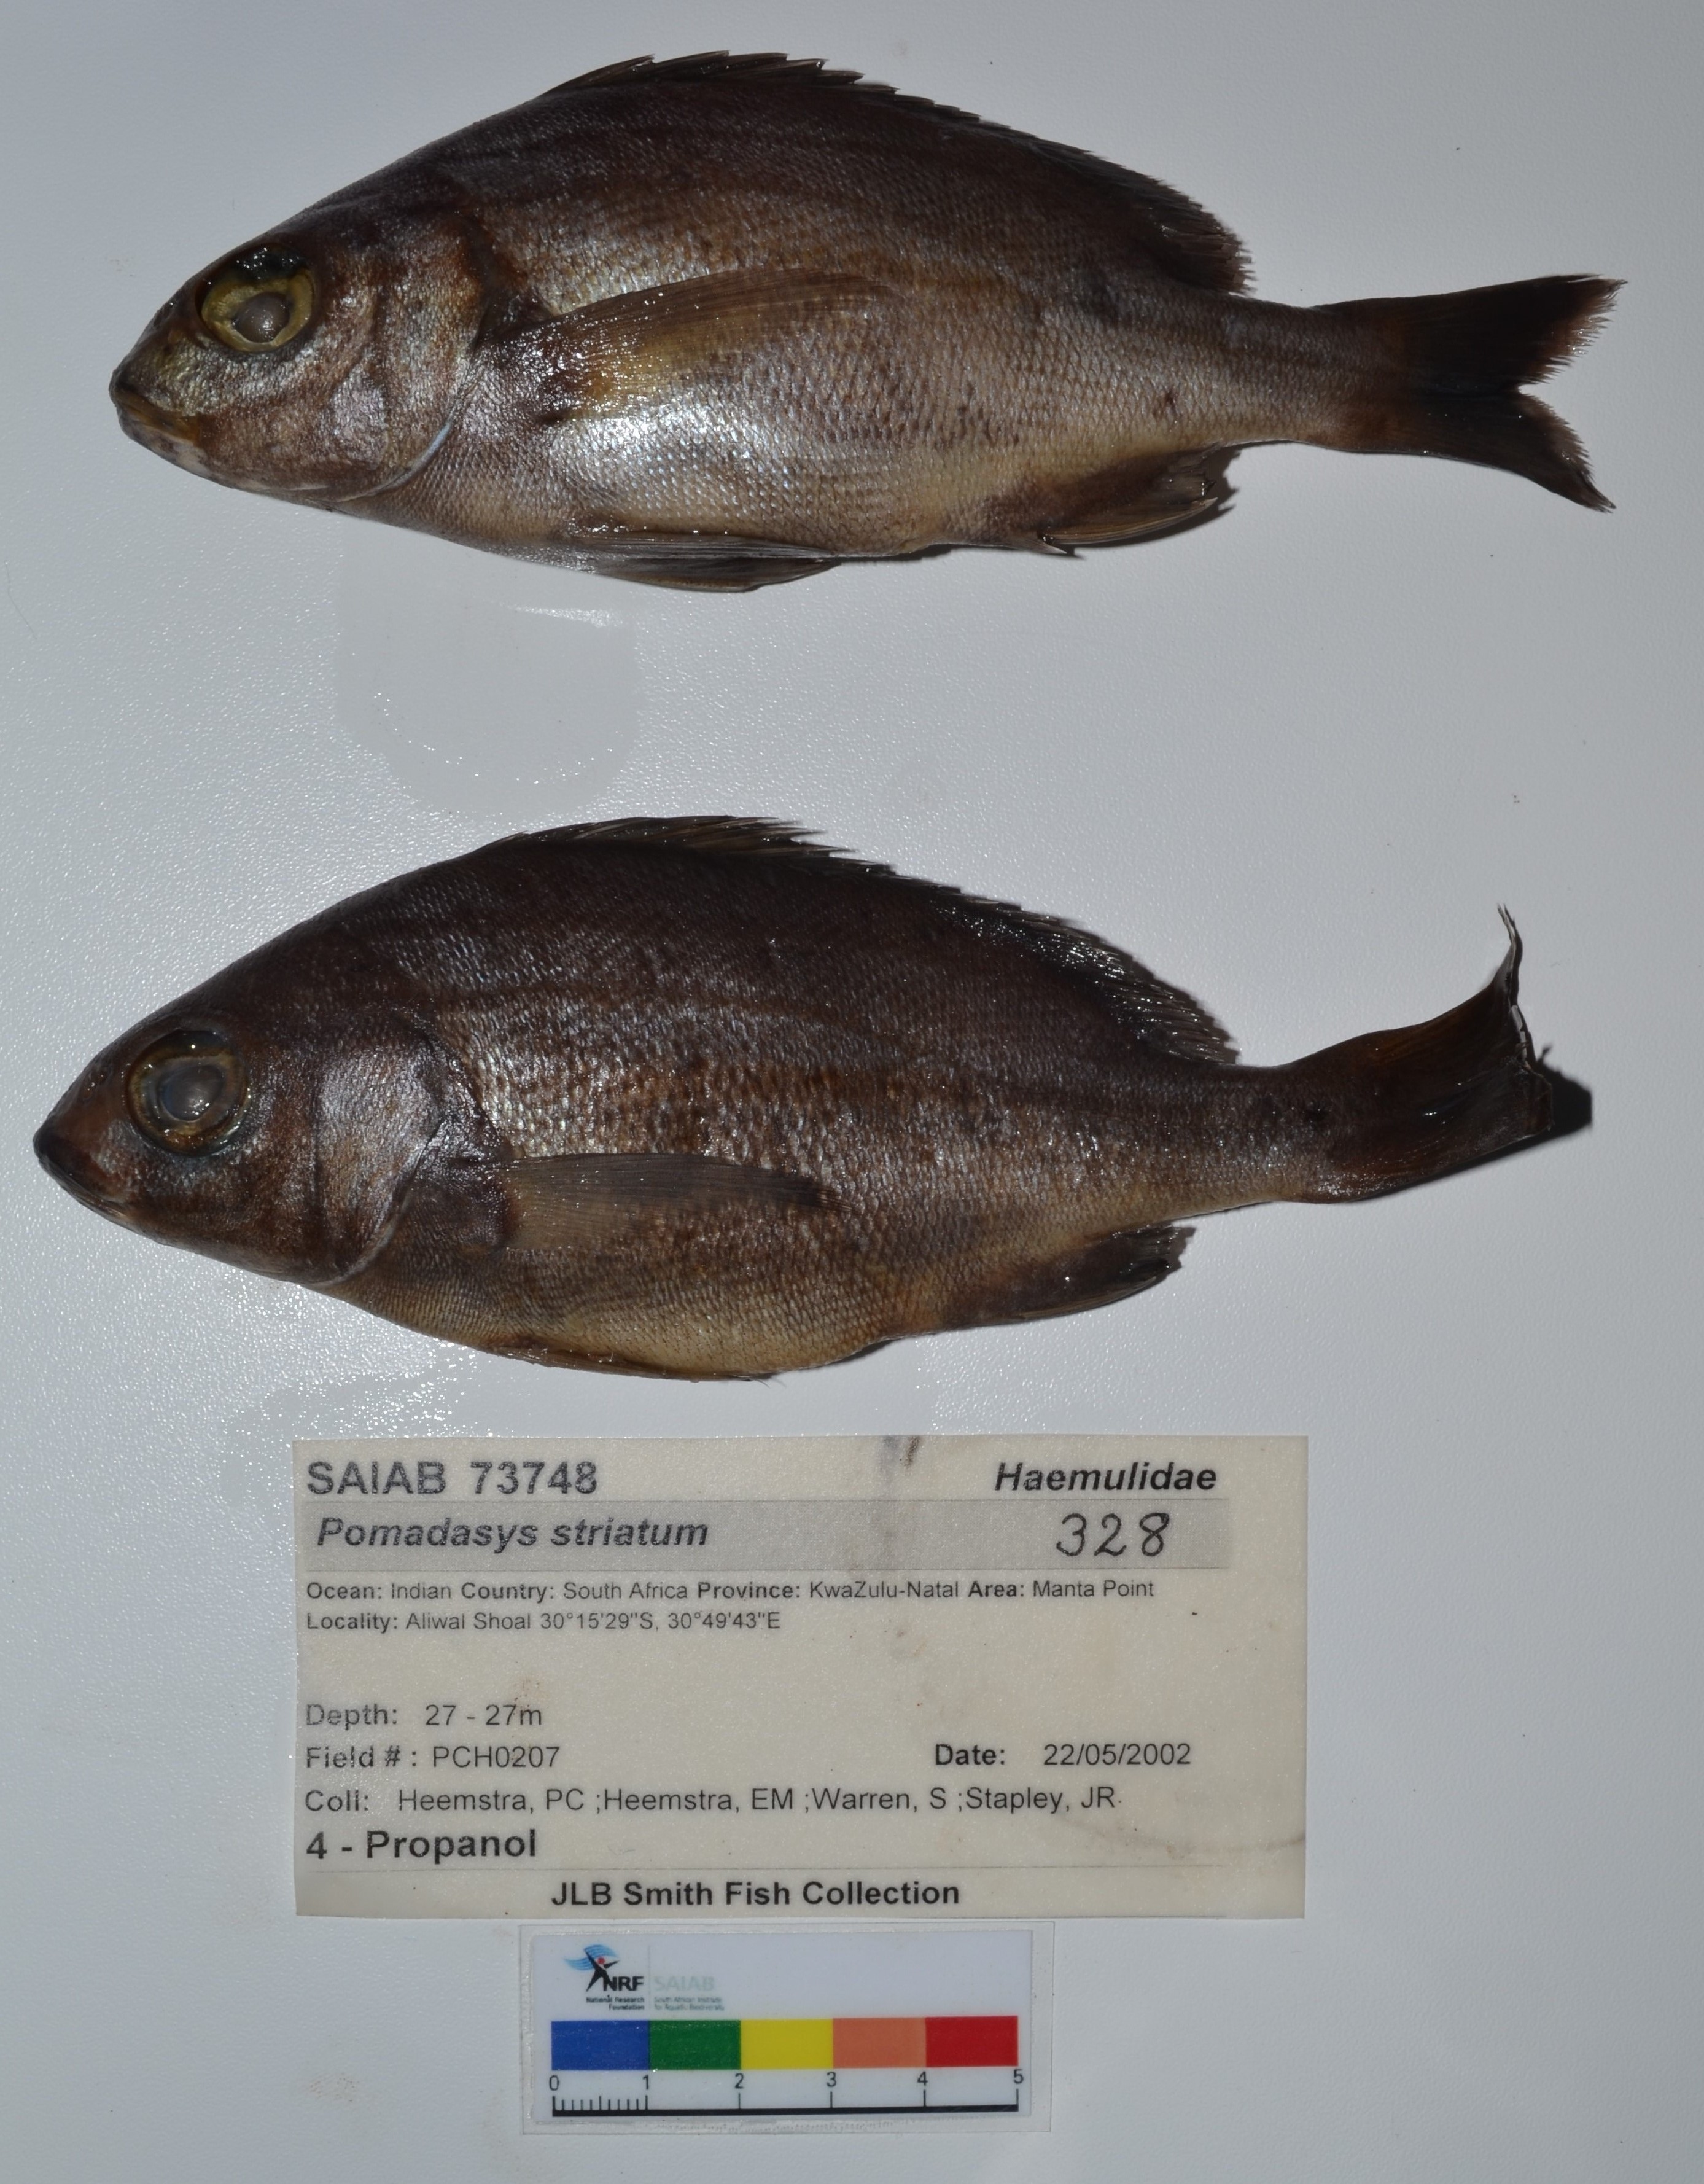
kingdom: Animalia
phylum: Chordata
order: Perciformes
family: Haemulidae
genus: Pomadasys
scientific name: Pomadasys striatus
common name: Striped grunter
